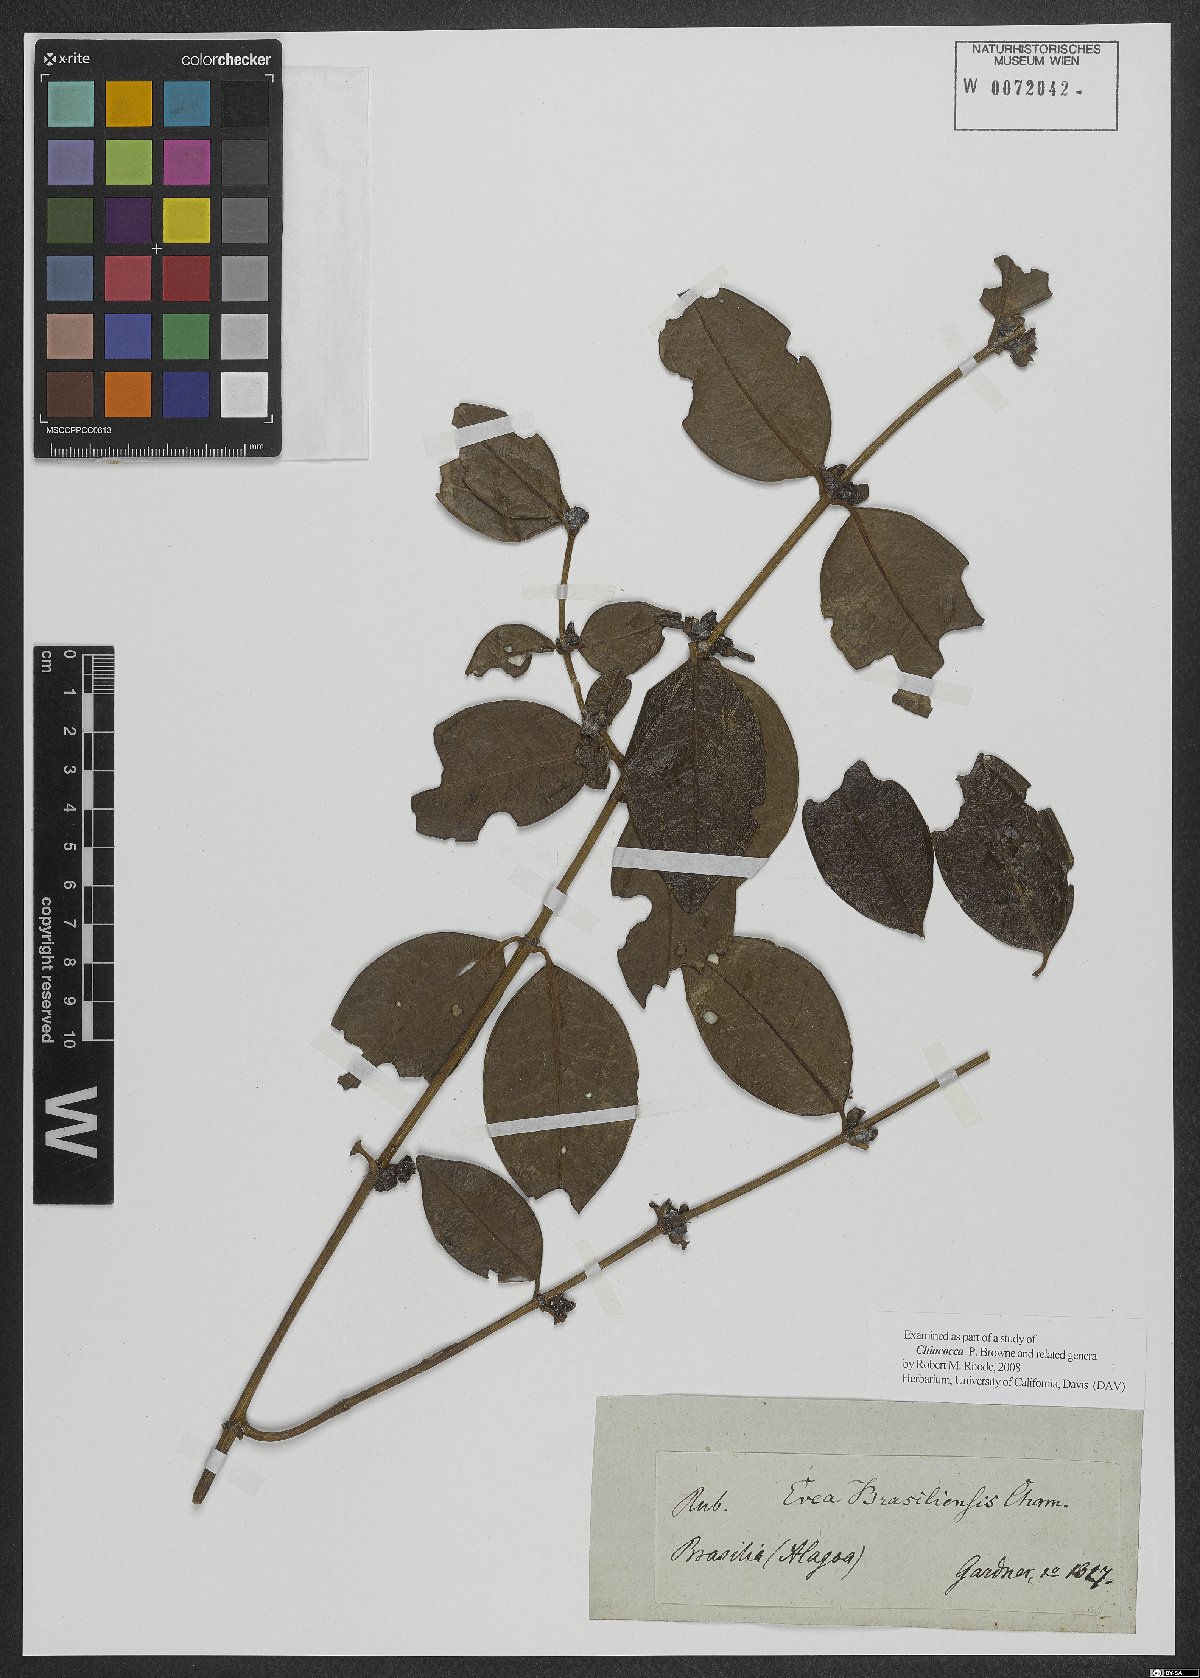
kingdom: Plantae
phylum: Tracheophyta
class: Magnoliopsida
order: Gentianales
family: Rubiaceae
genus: Chiococca
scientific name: Chiococca
